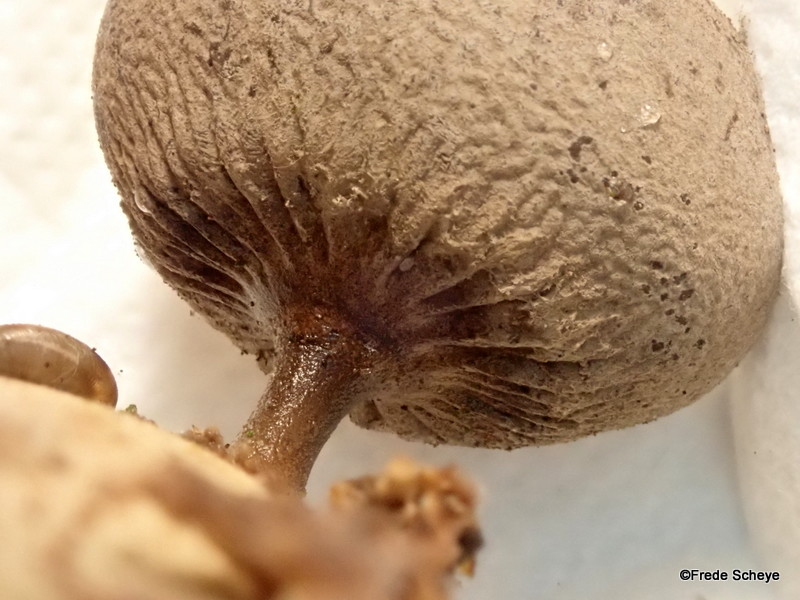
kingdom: Fungi
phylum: Basidiomycota
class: Agaricomycetes
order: Geastrales
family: Geastraceae
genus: Geastrum
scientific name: Geastrum pectinatum
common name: stilket stjernebold
